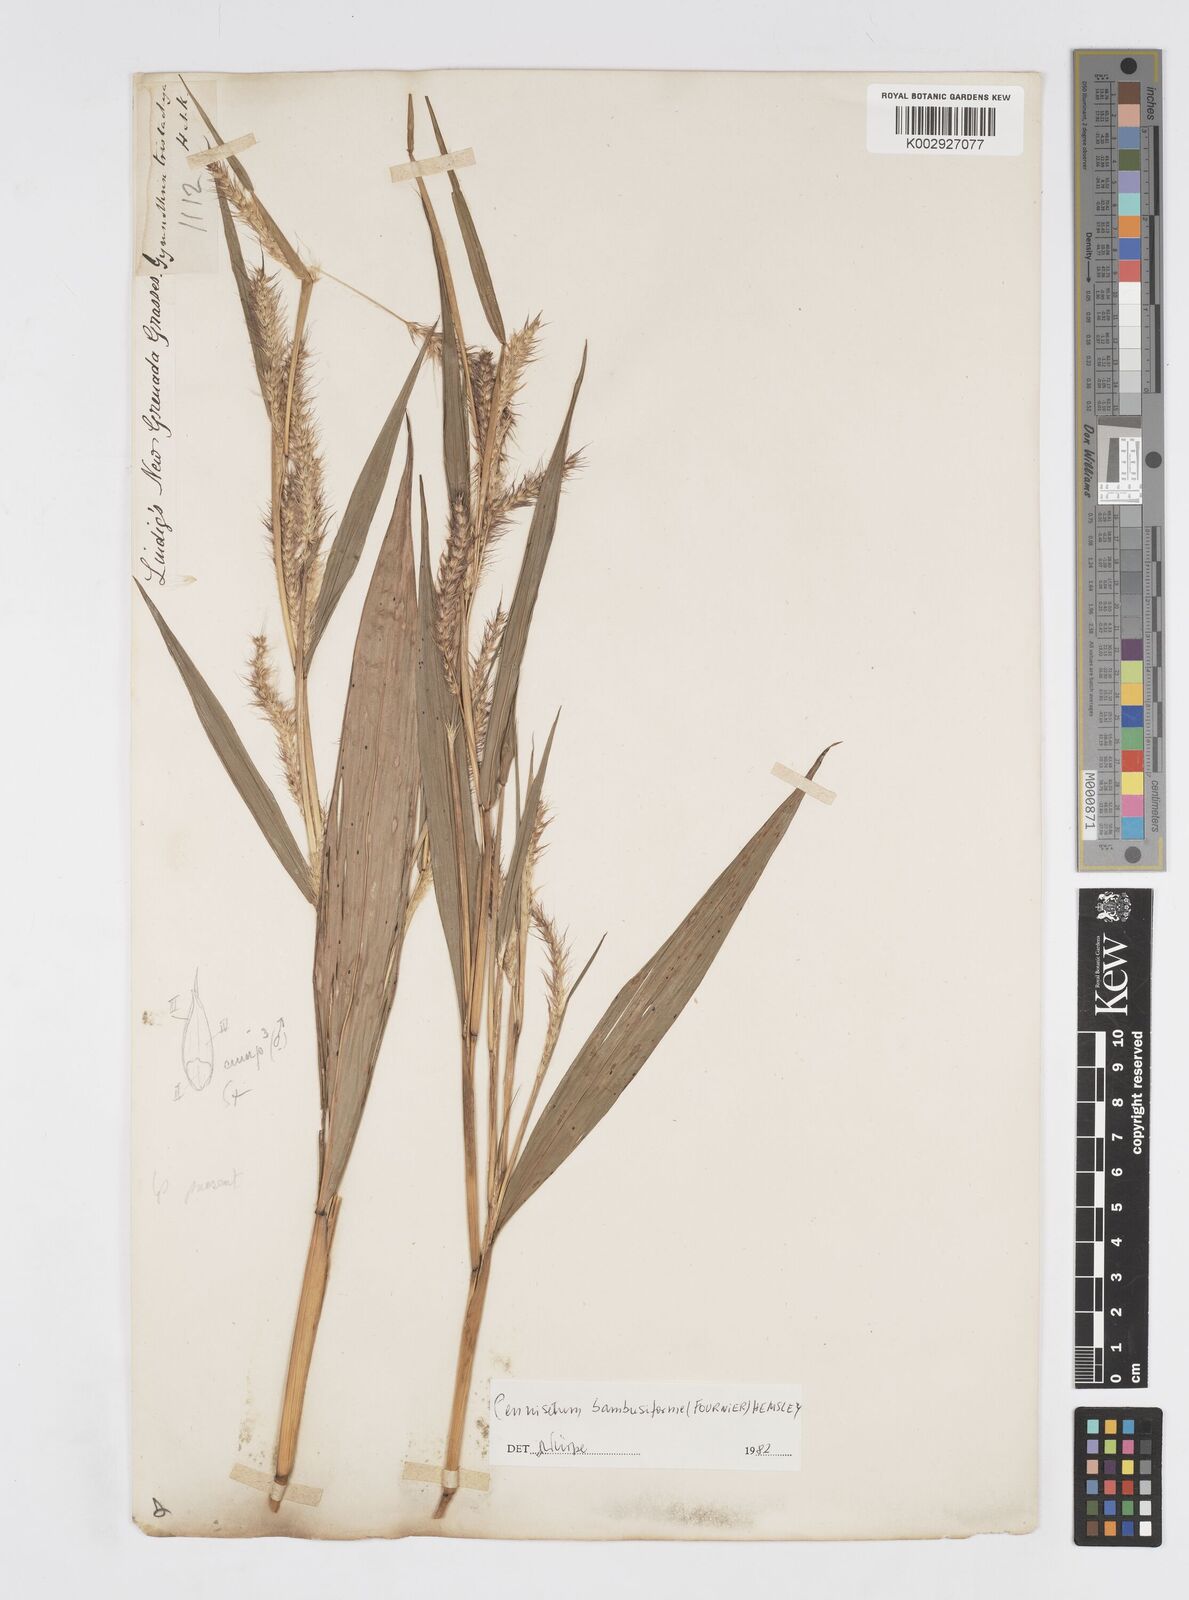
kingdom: Plantae
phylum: Tracheophyta
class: Liliopsida
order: Poales
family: Poaceae
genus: Cenchrus
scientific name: Cenchrus tristachyus
